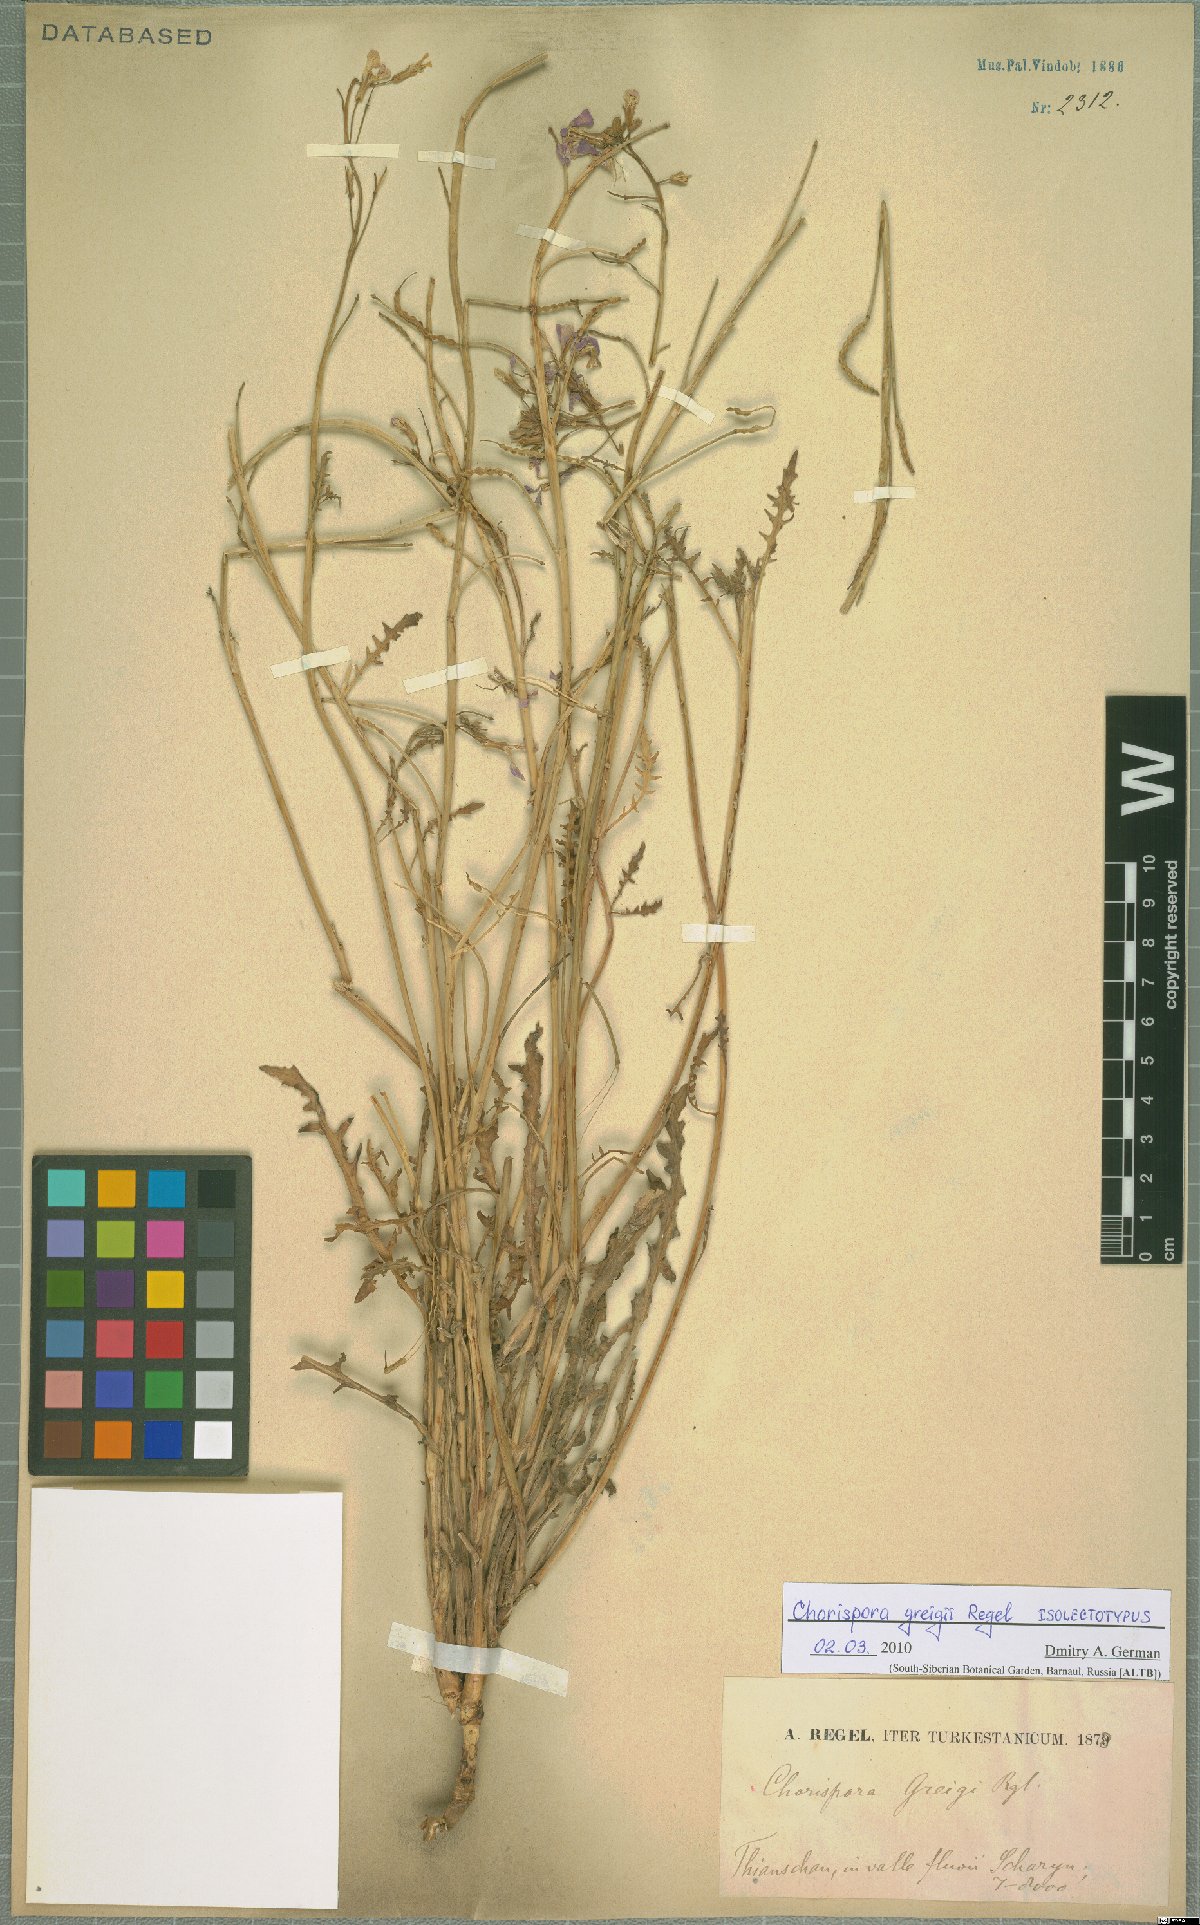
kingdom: Plantae
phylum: Tracheophyta
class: Magnoliopsida
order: Brassicales
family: Brassicaceae
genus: Chorispora
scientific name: Chorispora greigii
